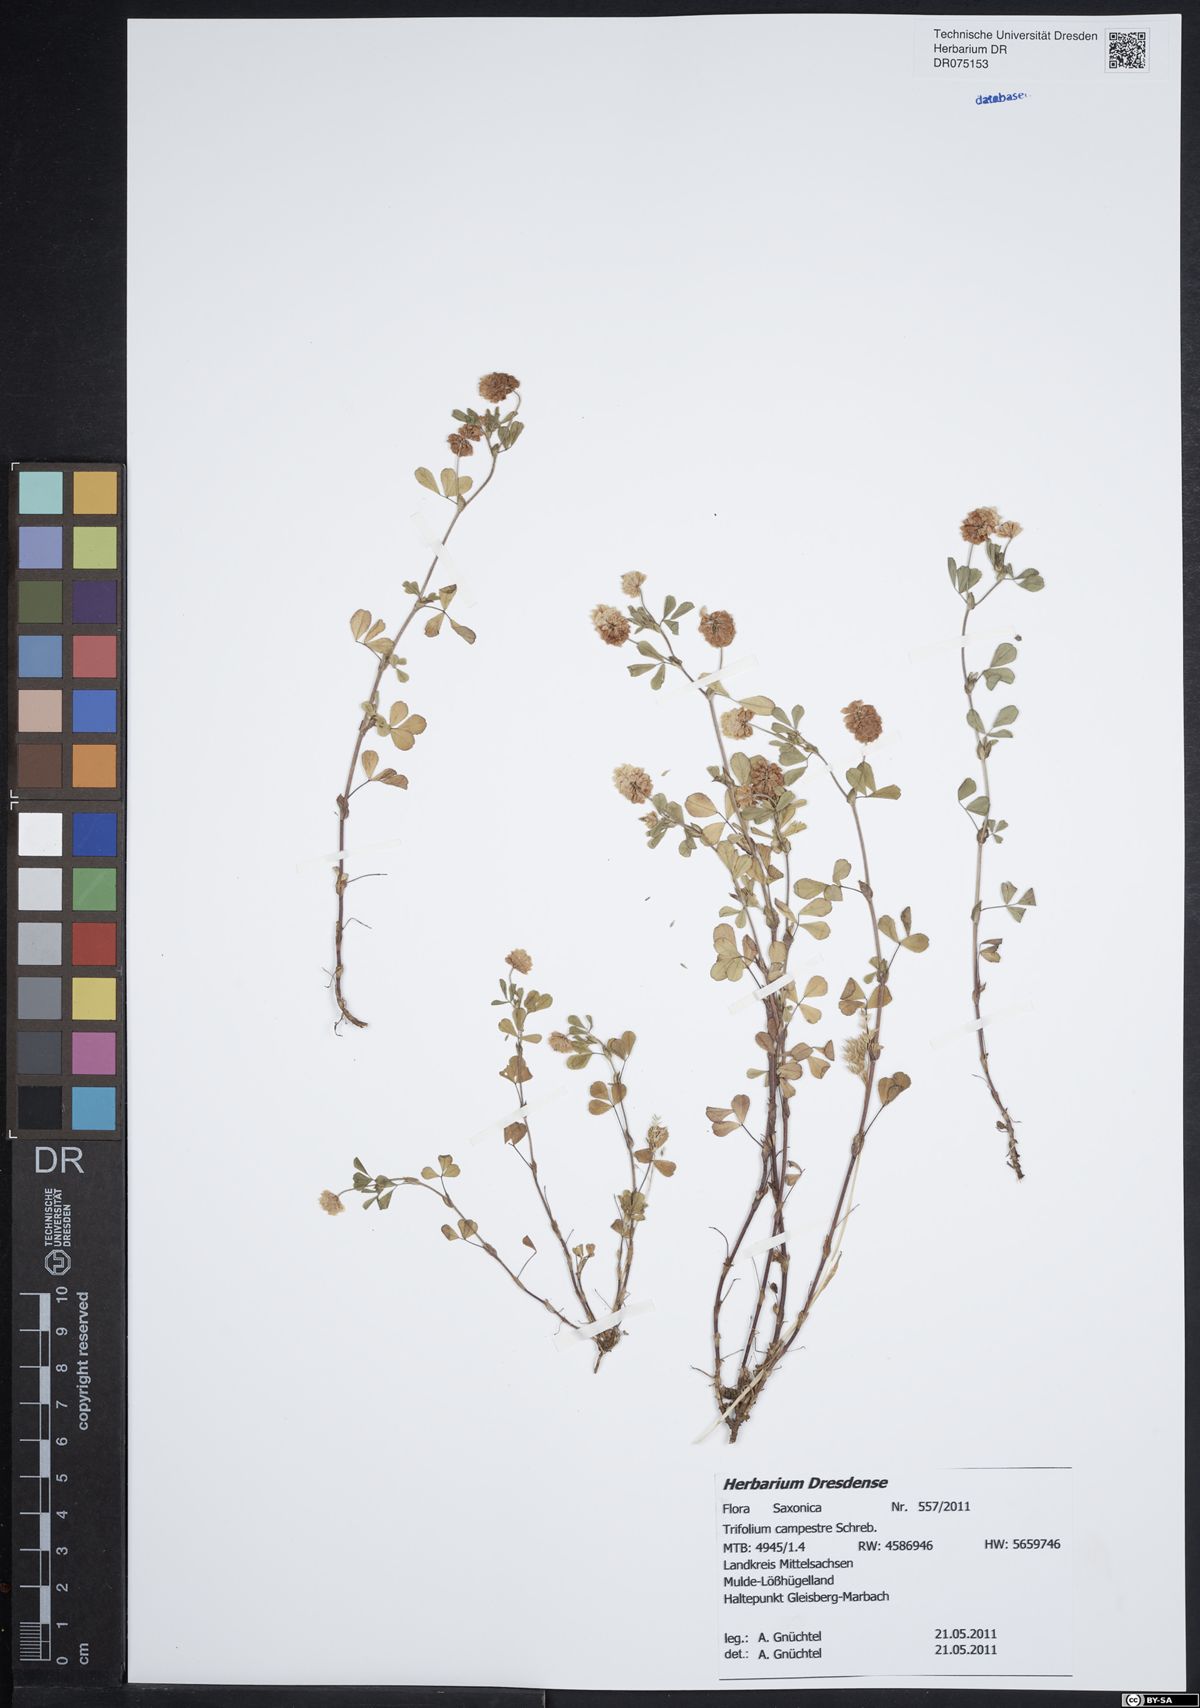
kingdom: Plantae
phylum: Tracheophyta
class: Magnoliopsida
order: Fabales
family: Fabaceae
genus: Trifolium
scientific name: Trifolium campestre
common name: Field clover
